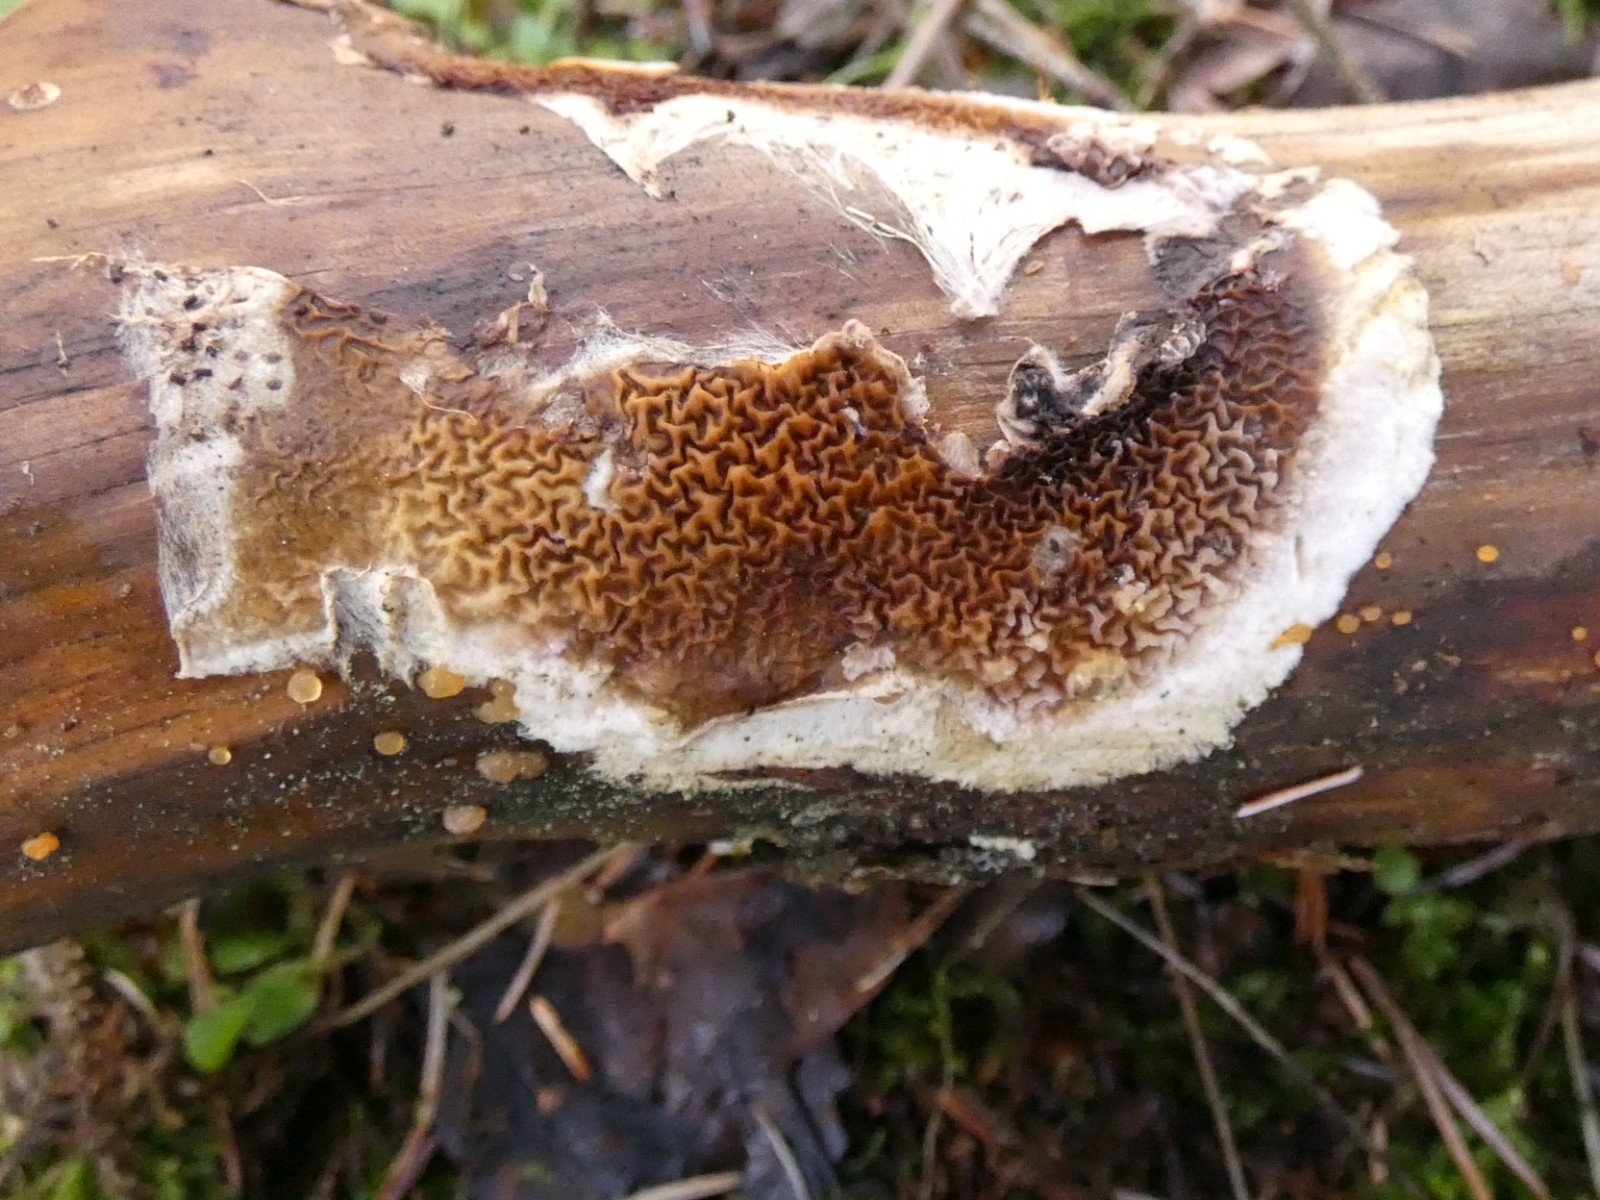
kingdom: Fungi
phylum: Basidiomycota
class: Agaricomycetes
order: Boletales
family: Serpulaceae
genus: Serpula
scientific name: Serpula himantioides
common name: tyndkødet hussvamp
